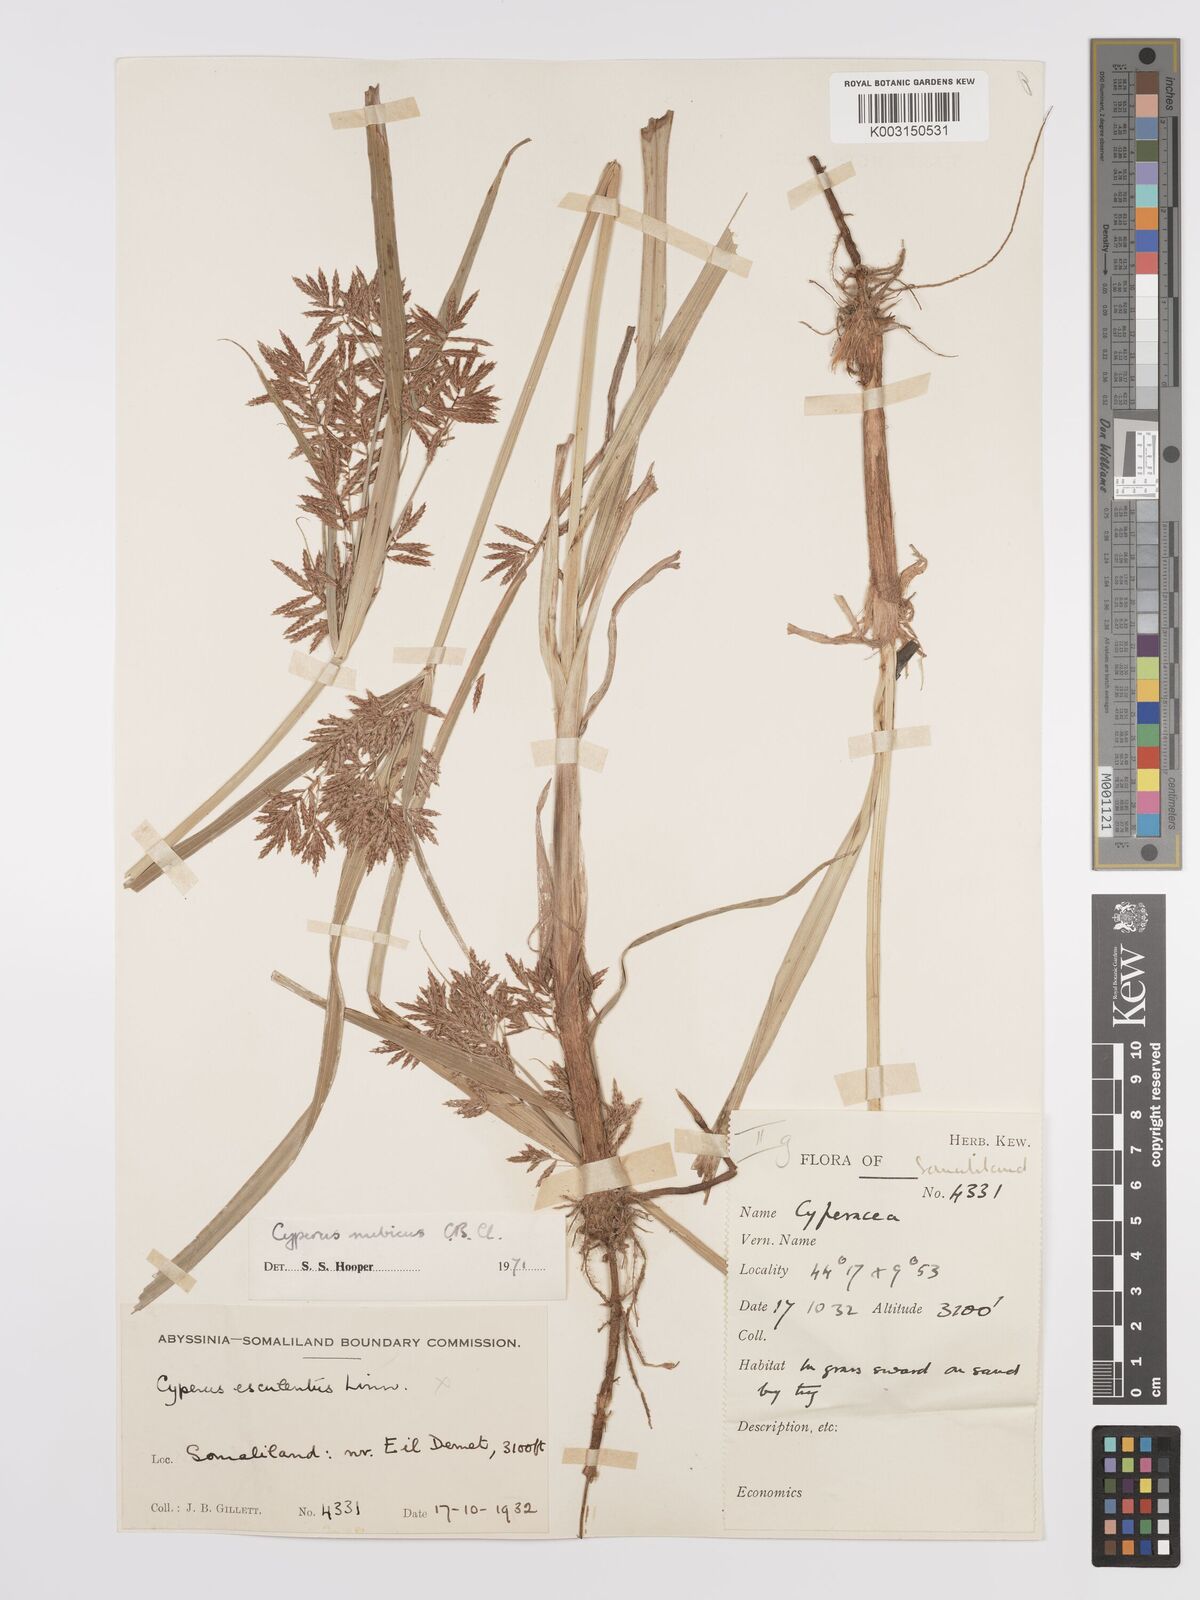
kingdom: Plantae
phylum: Tracheophyta
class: Liliopsida
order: Poales
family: Cyperaceae
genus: Cyperus
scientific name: Cyperus bifax
